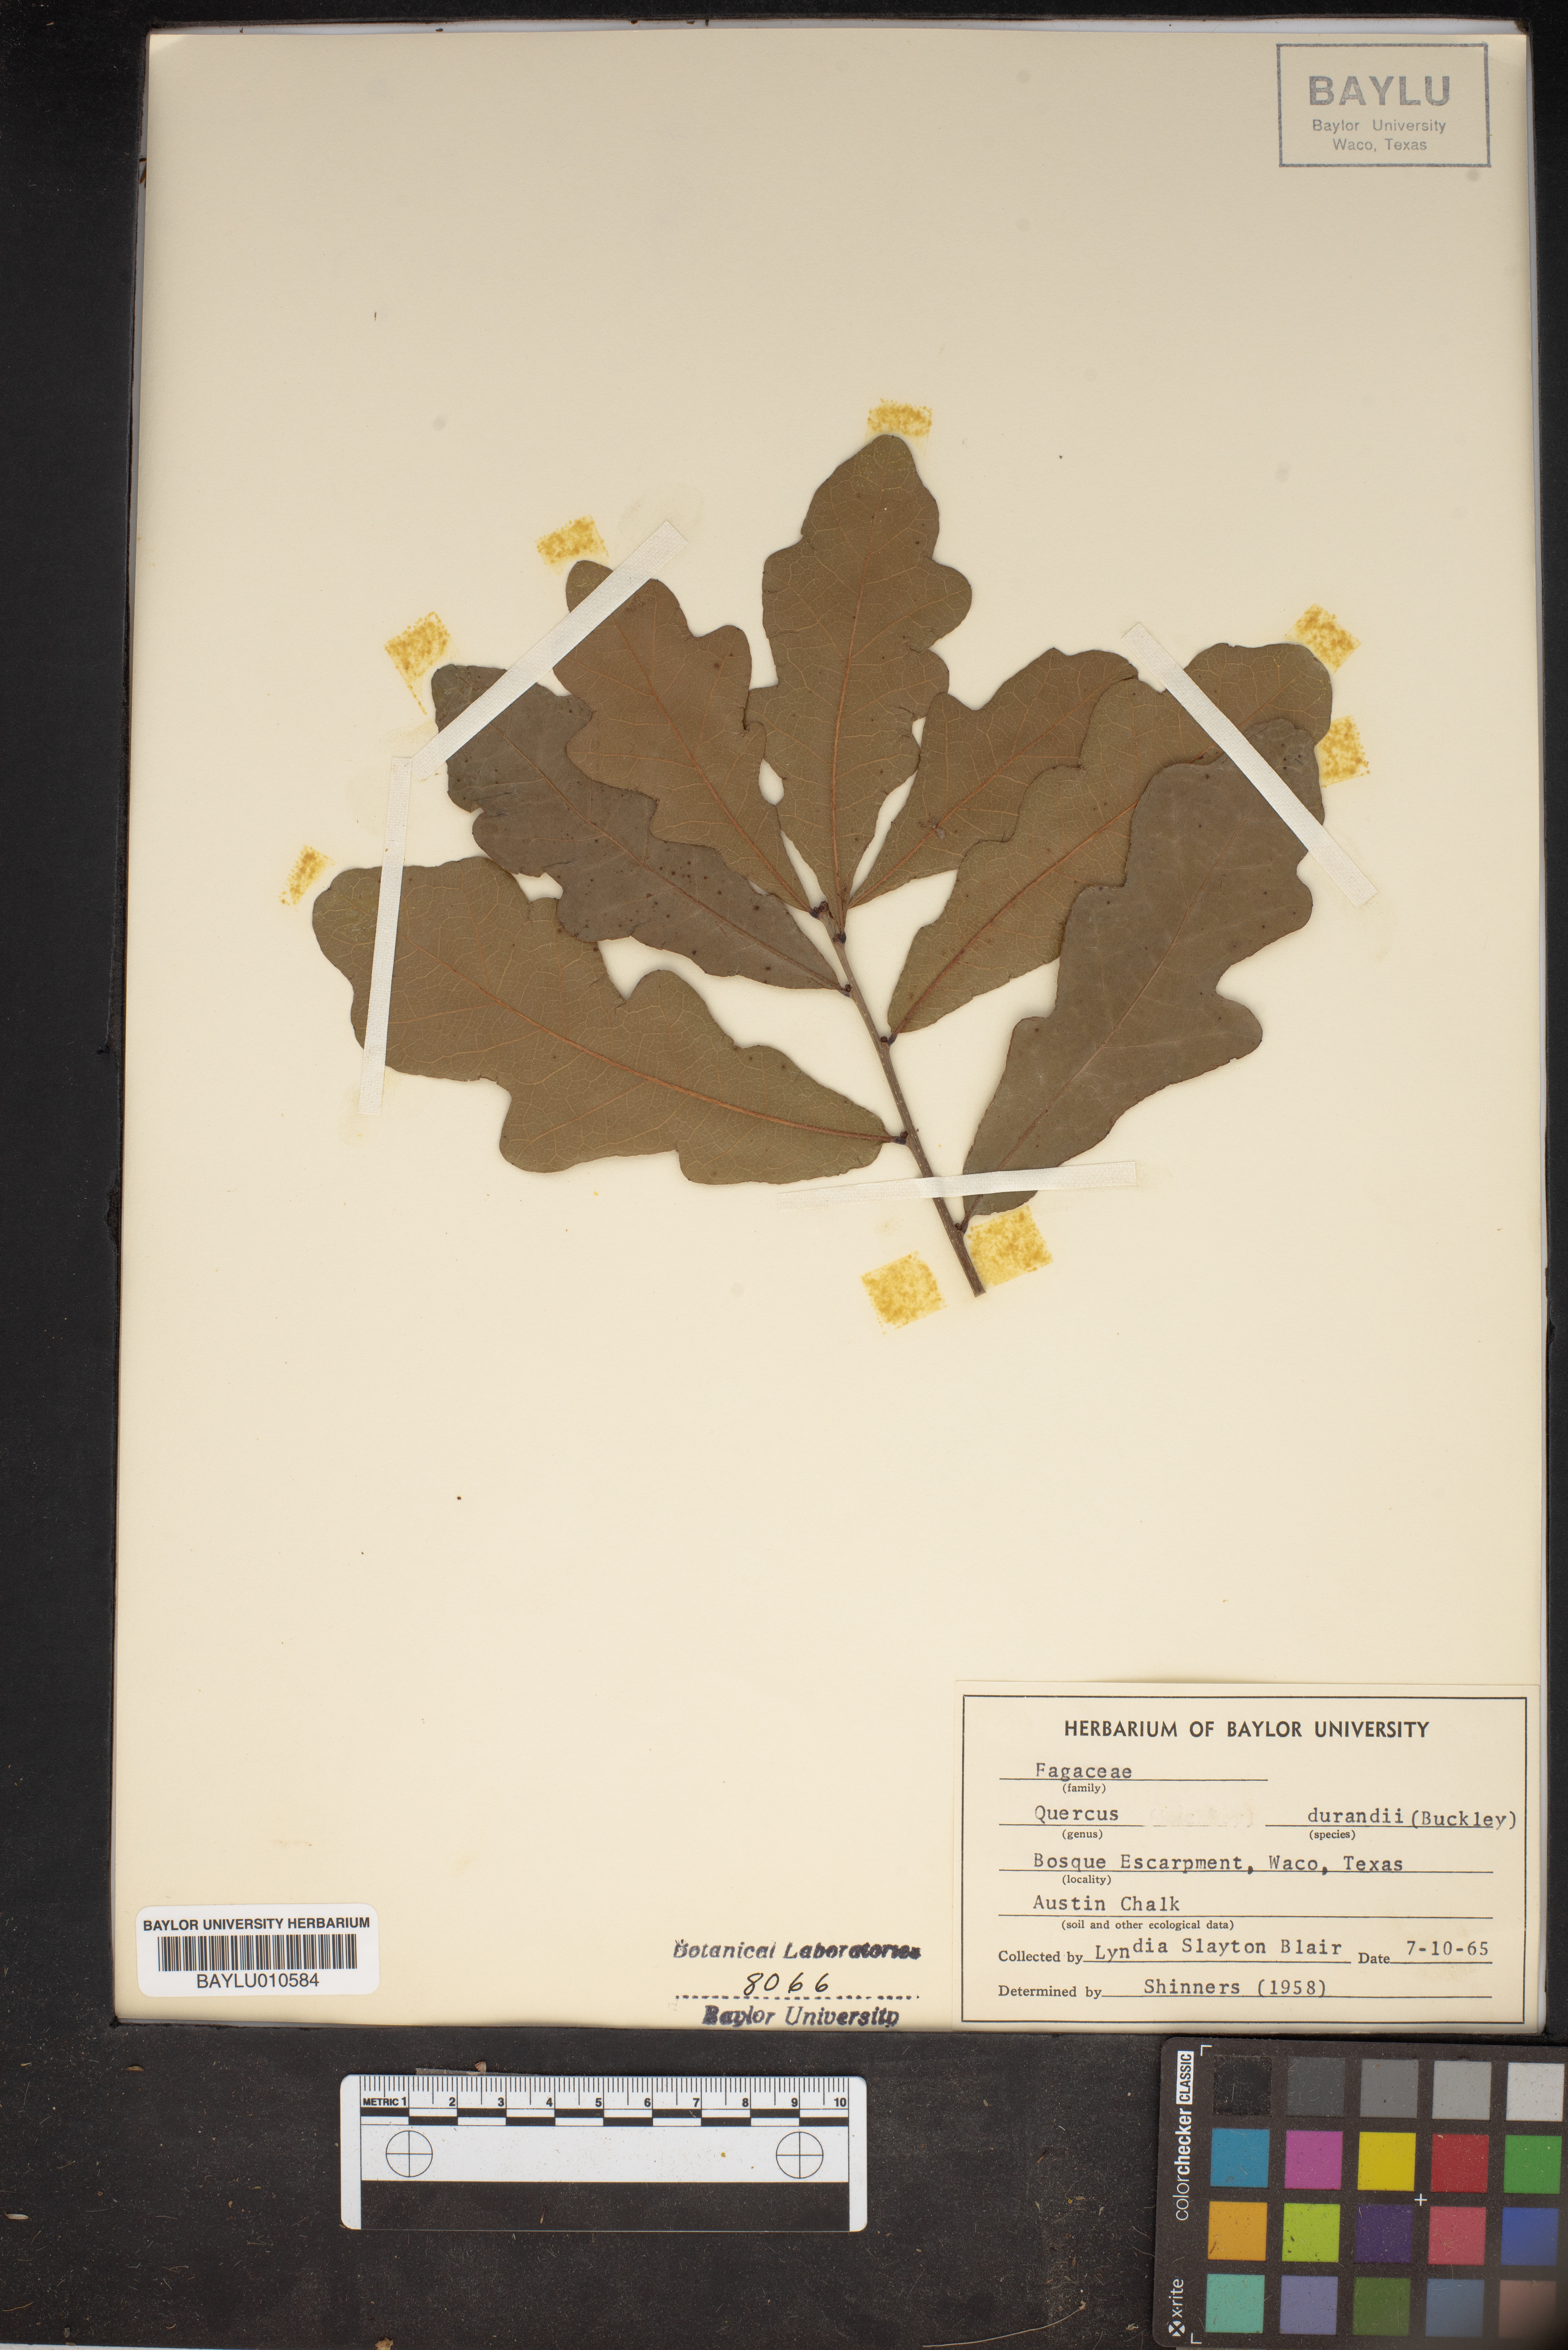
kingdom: Plantae
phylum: Tracheophyta
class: Magnoliopsida
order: Fagales
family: Fagaceae
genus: Quercus
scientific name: Quercus sinuata
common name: Durand oak
